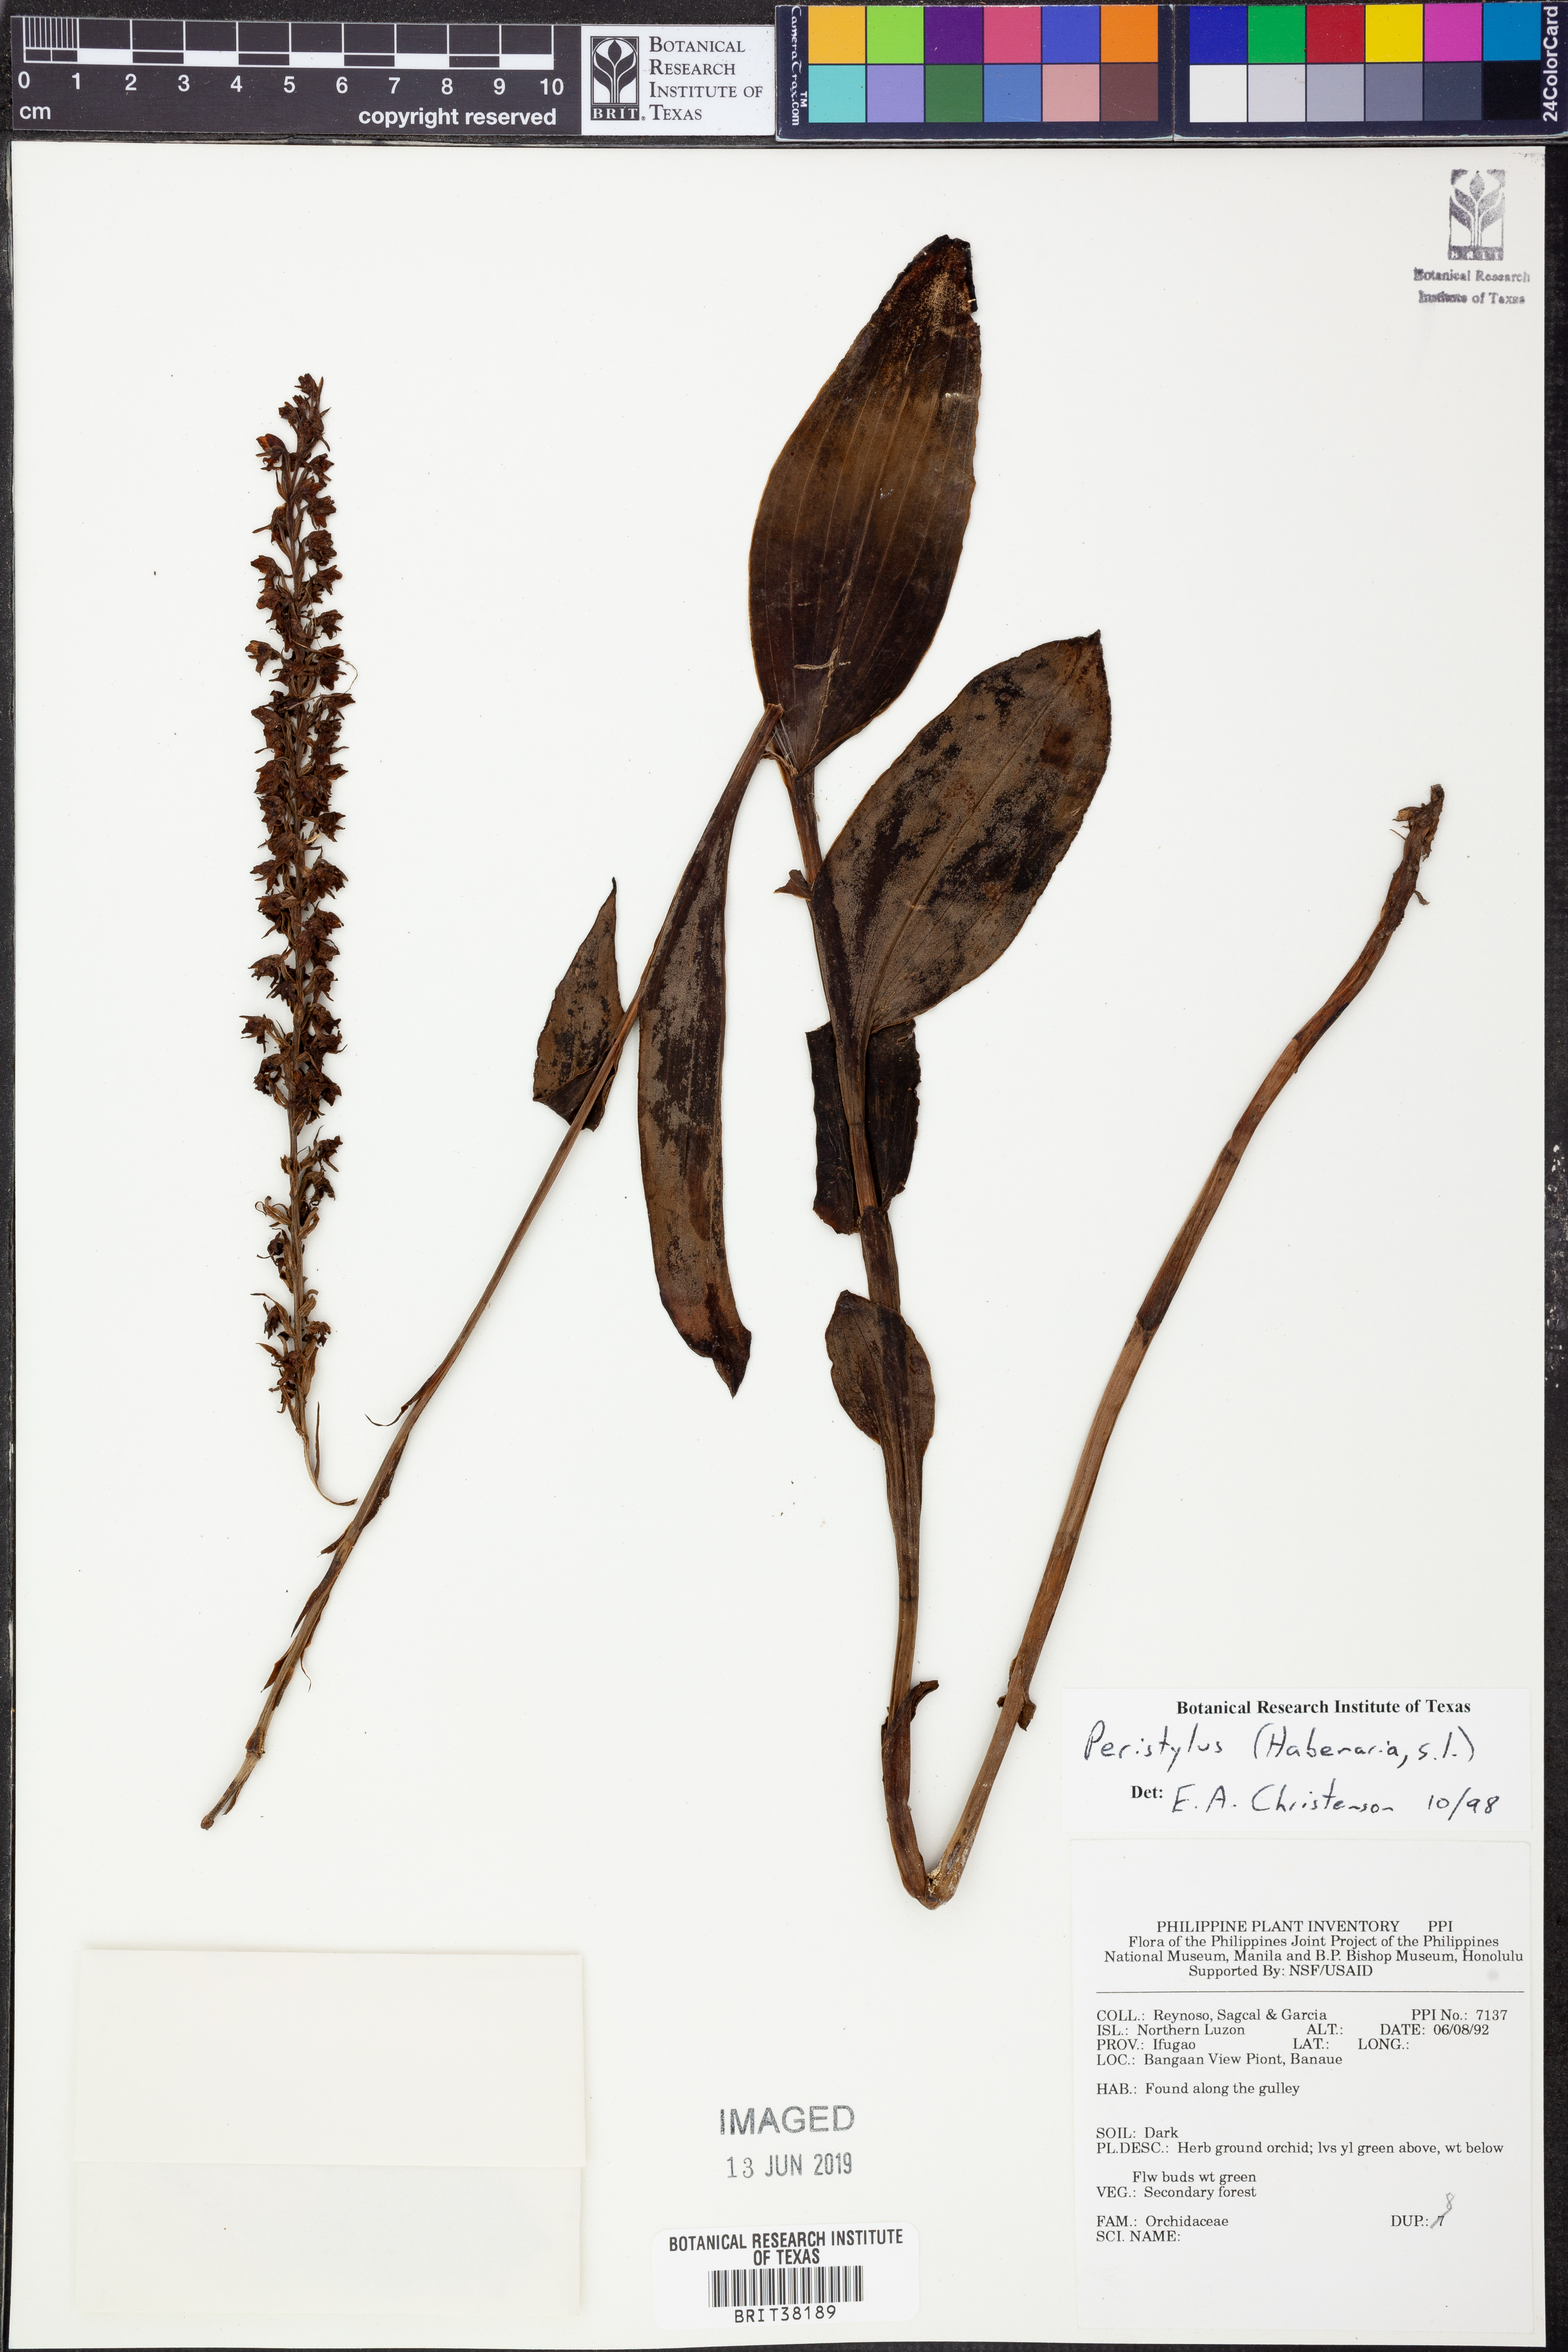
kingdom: Plantae
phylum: Tracheophyta
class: Liliopsida
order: Asparagales
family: Orchidaceae
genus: Peristylus
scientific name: Peristylus
